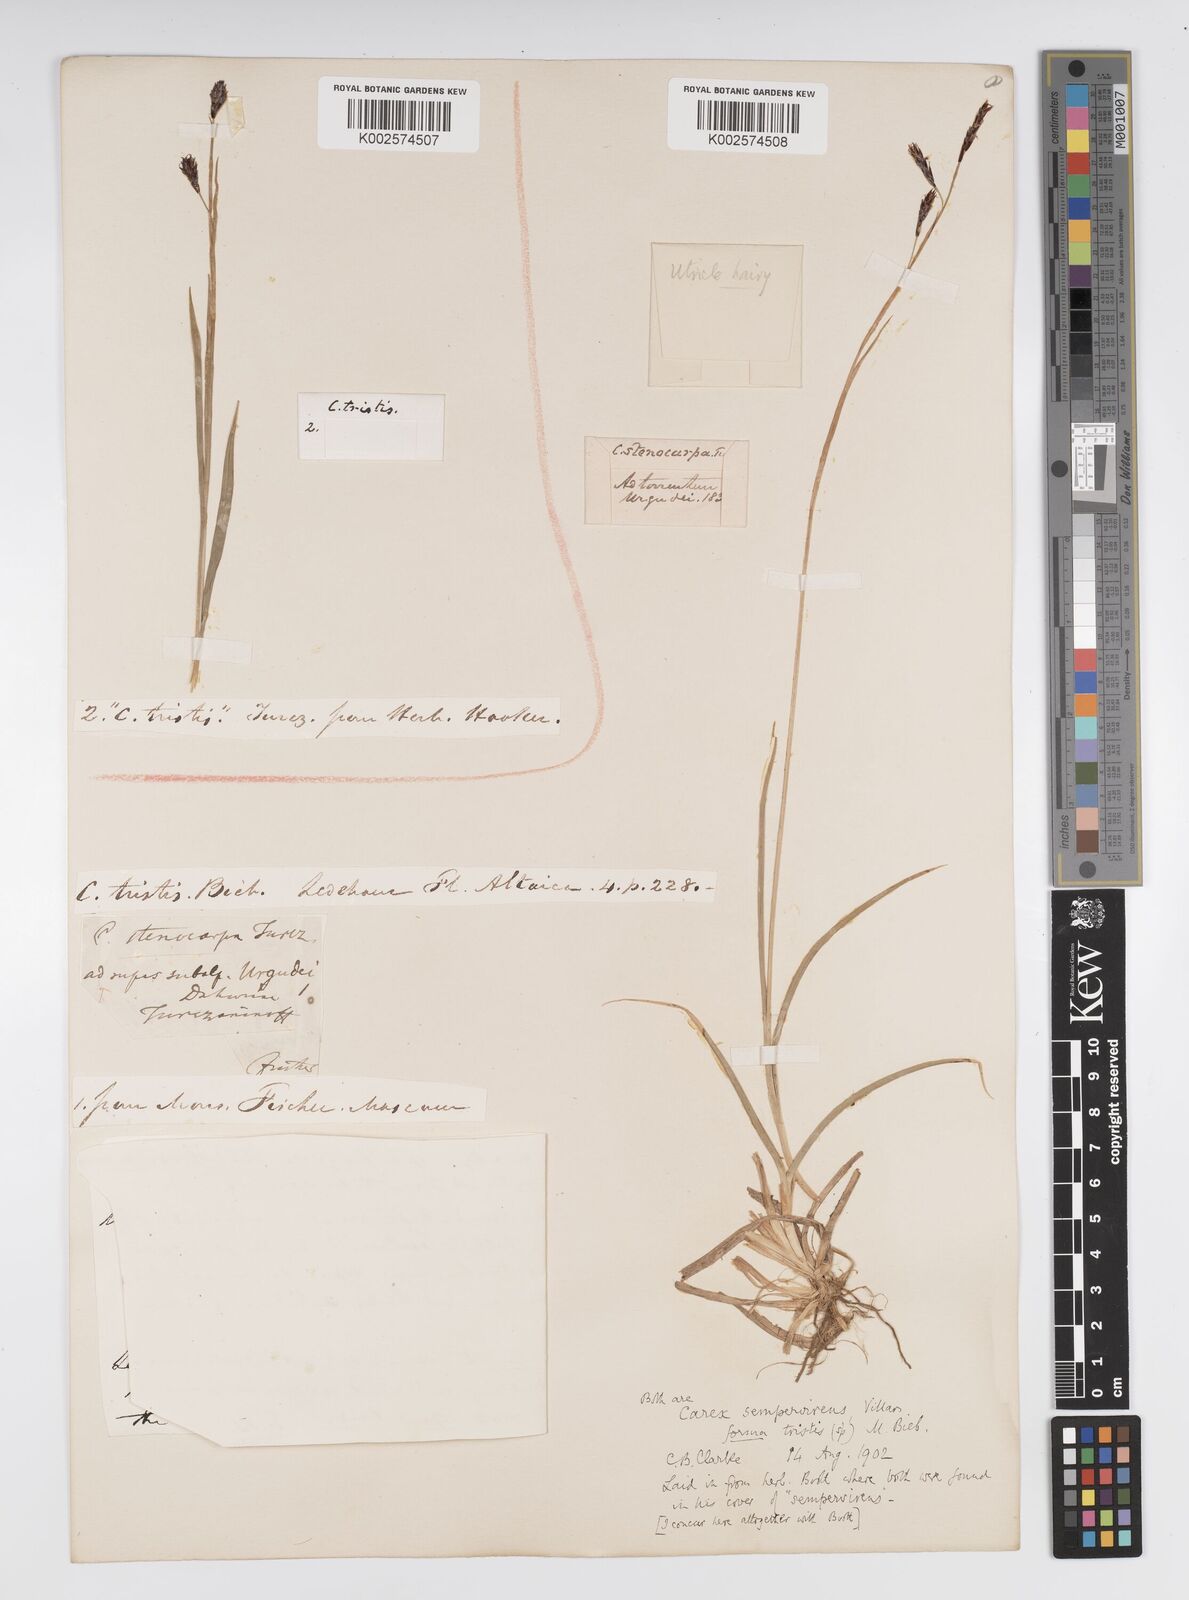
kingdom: Plantae
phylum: Tracheophyta
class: Liliopsida
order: Poales
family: Cyperaceae
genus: Carex
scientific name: Carex sempervirens
